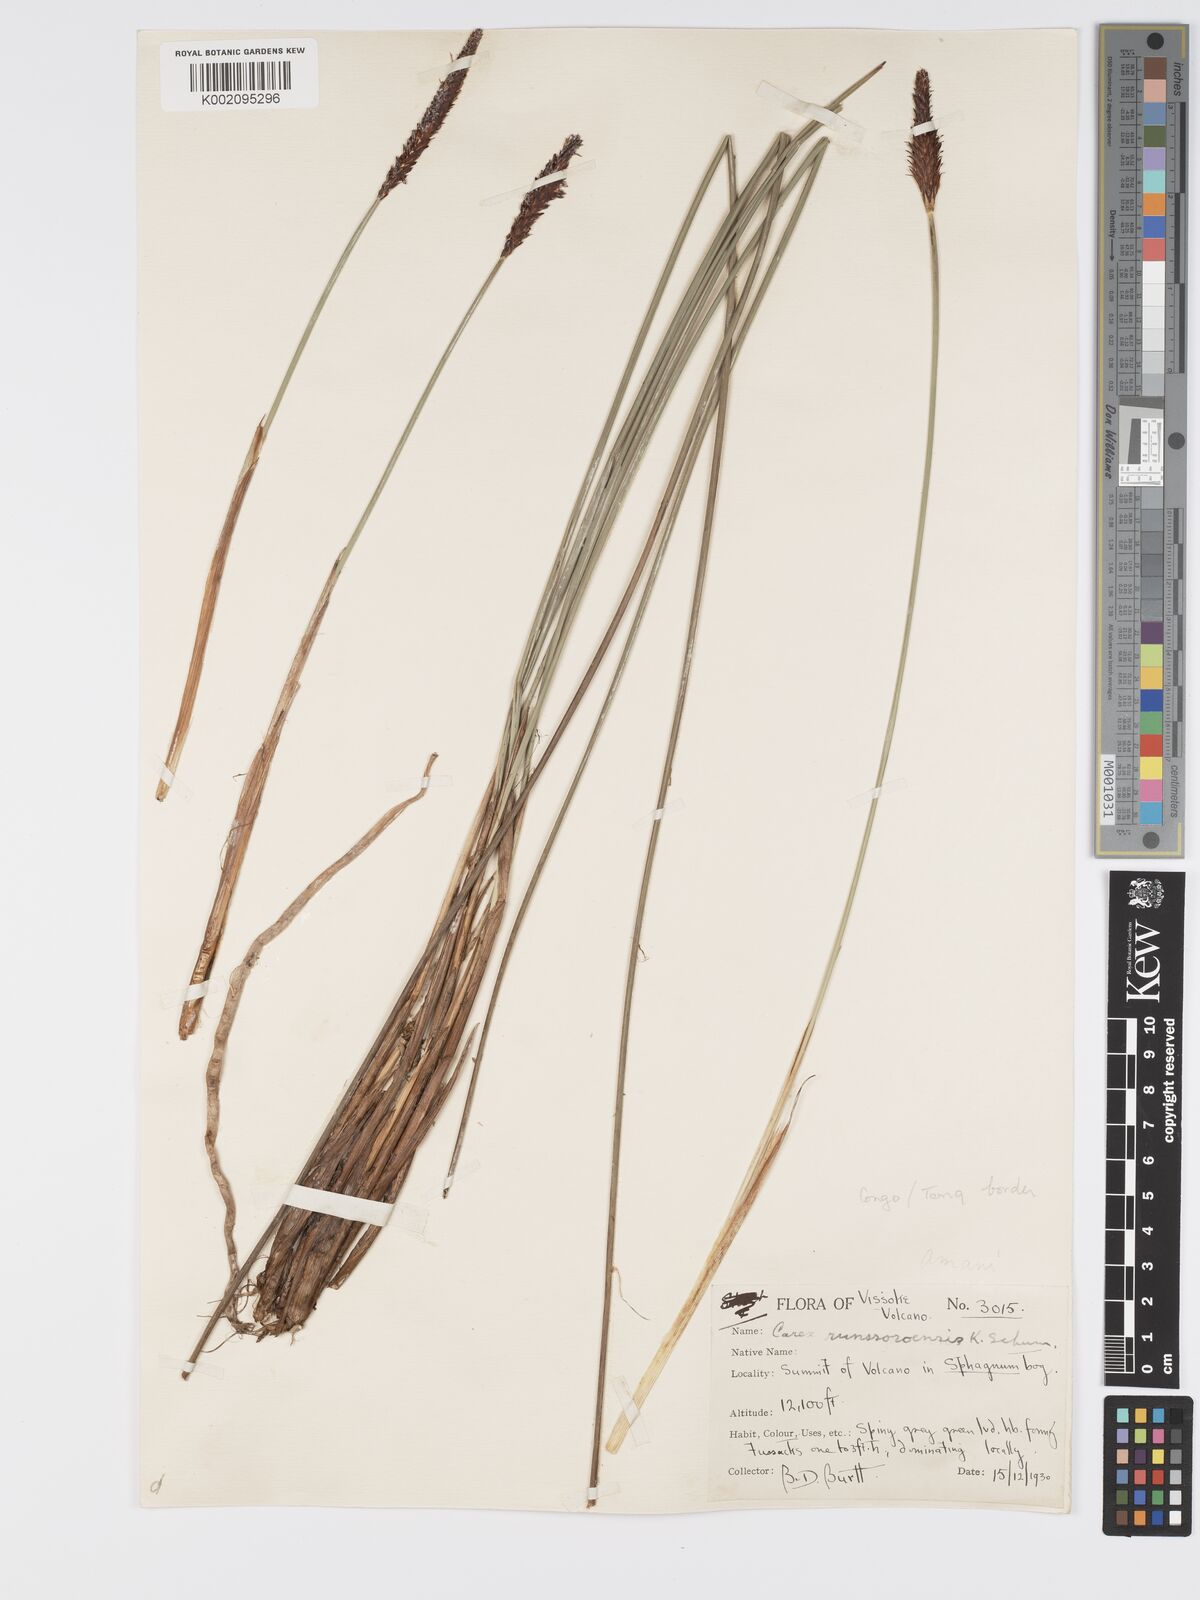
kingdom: Plantae
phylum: Tracheophyta
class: Liliopsida
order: Poales
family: Cyperaceae
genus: Carex
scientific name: Carex runssoroensis
